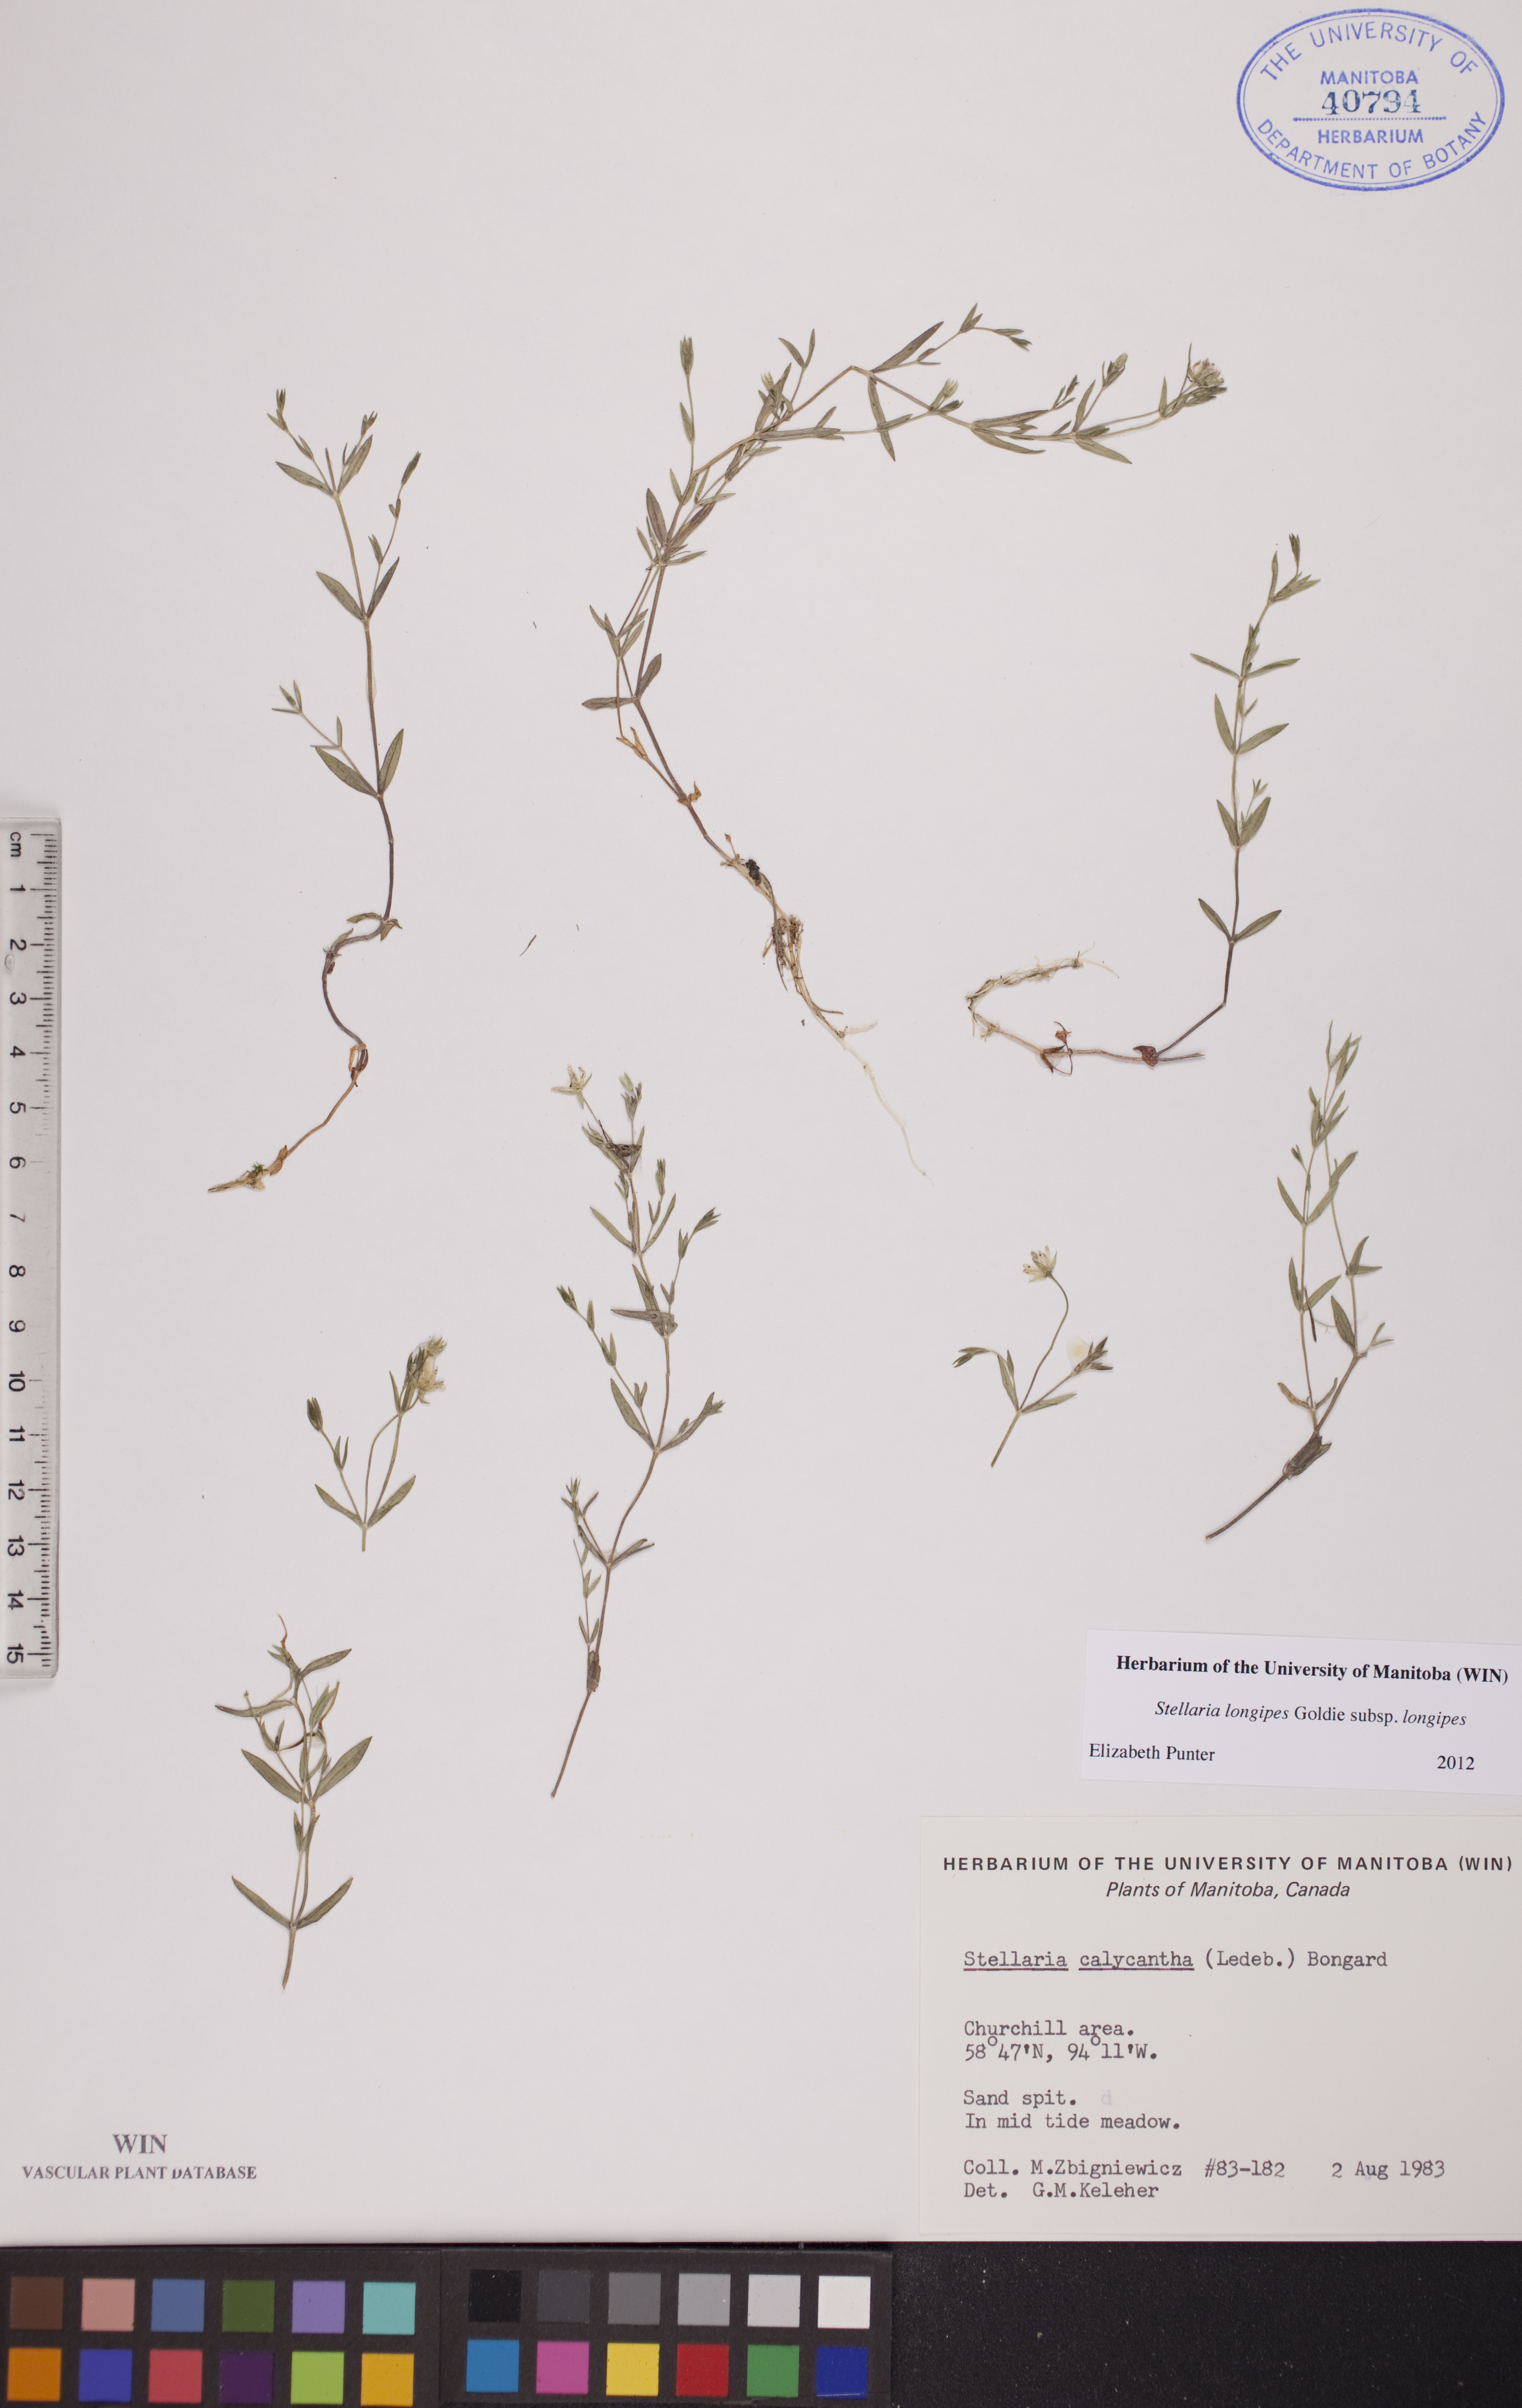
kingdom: Plantae
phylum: Tracheophyta
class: Magnoliopsida
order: Caryophyllales
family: Caryophyllaceae
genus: Stellaria
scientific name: Stellaria calycantha
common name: Northern starwort
